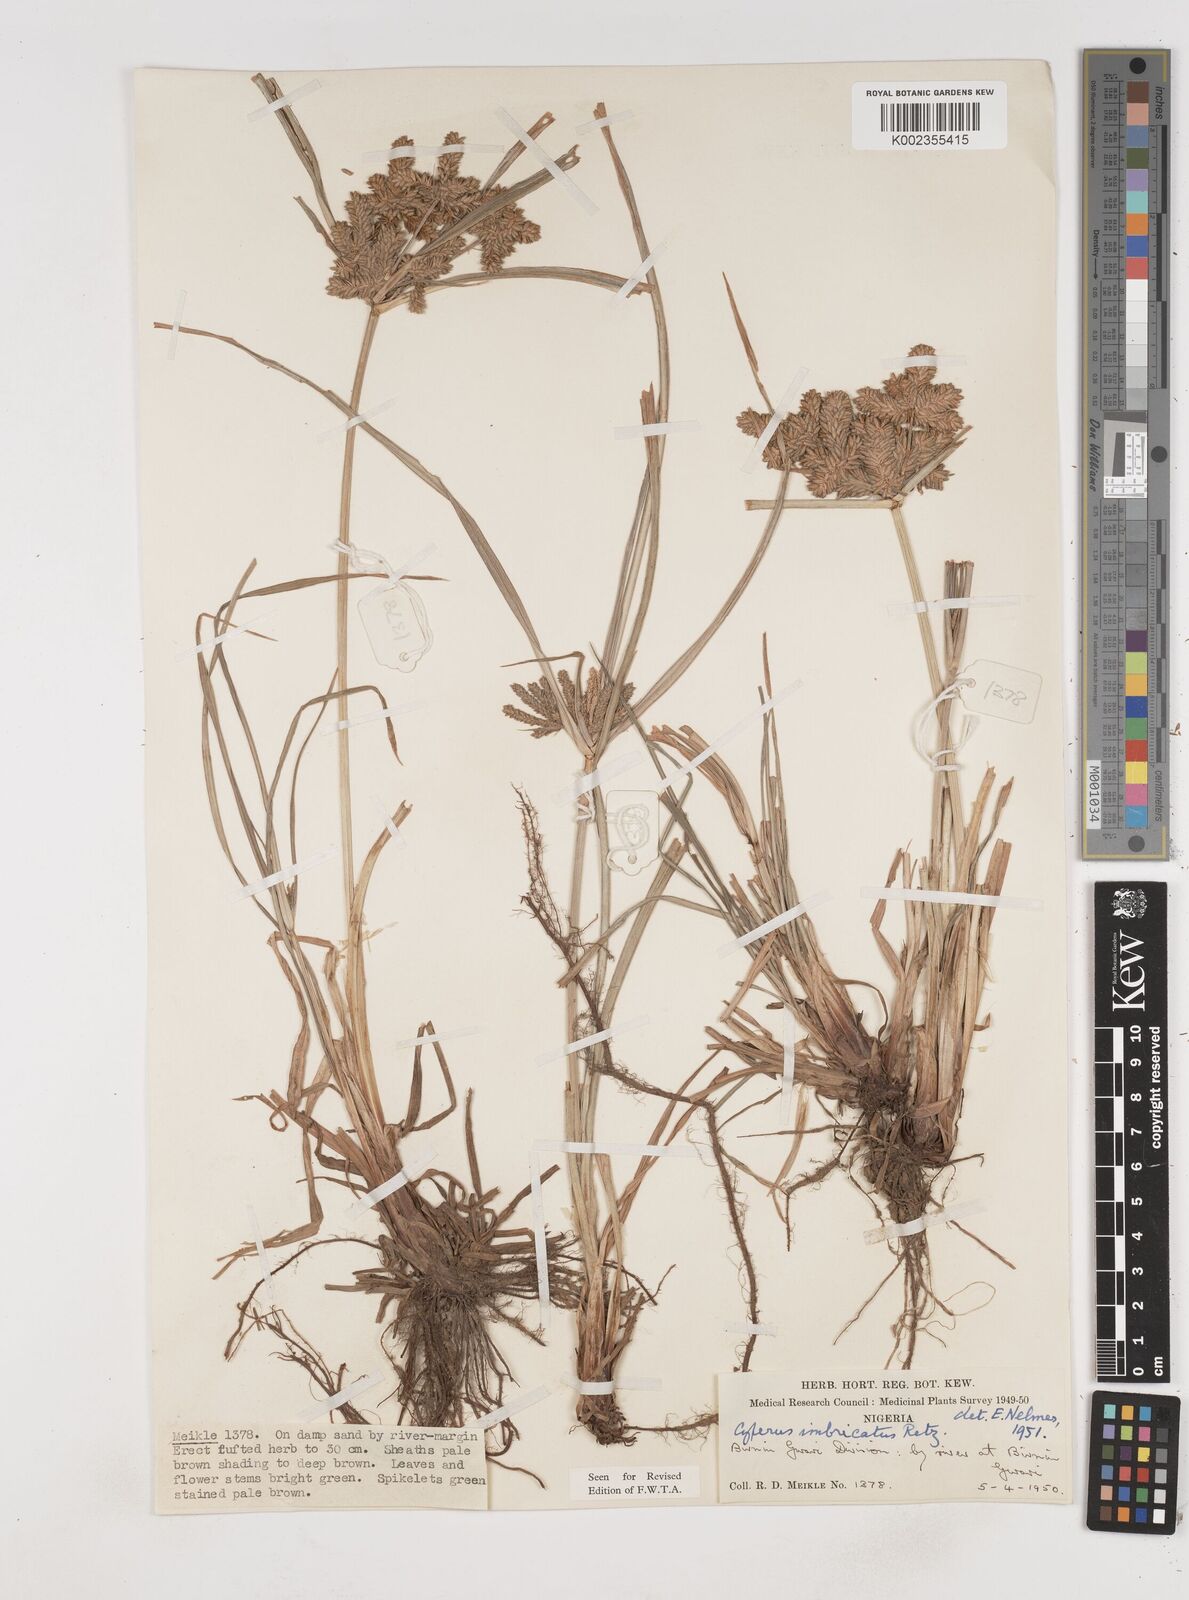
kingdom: Plantae
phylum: Tracheophyta
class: Liliopsida
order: Poales
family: Cyperaceae
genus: Cyperus
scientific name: Cyperus imbricatus
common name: Shingle flatsedge
